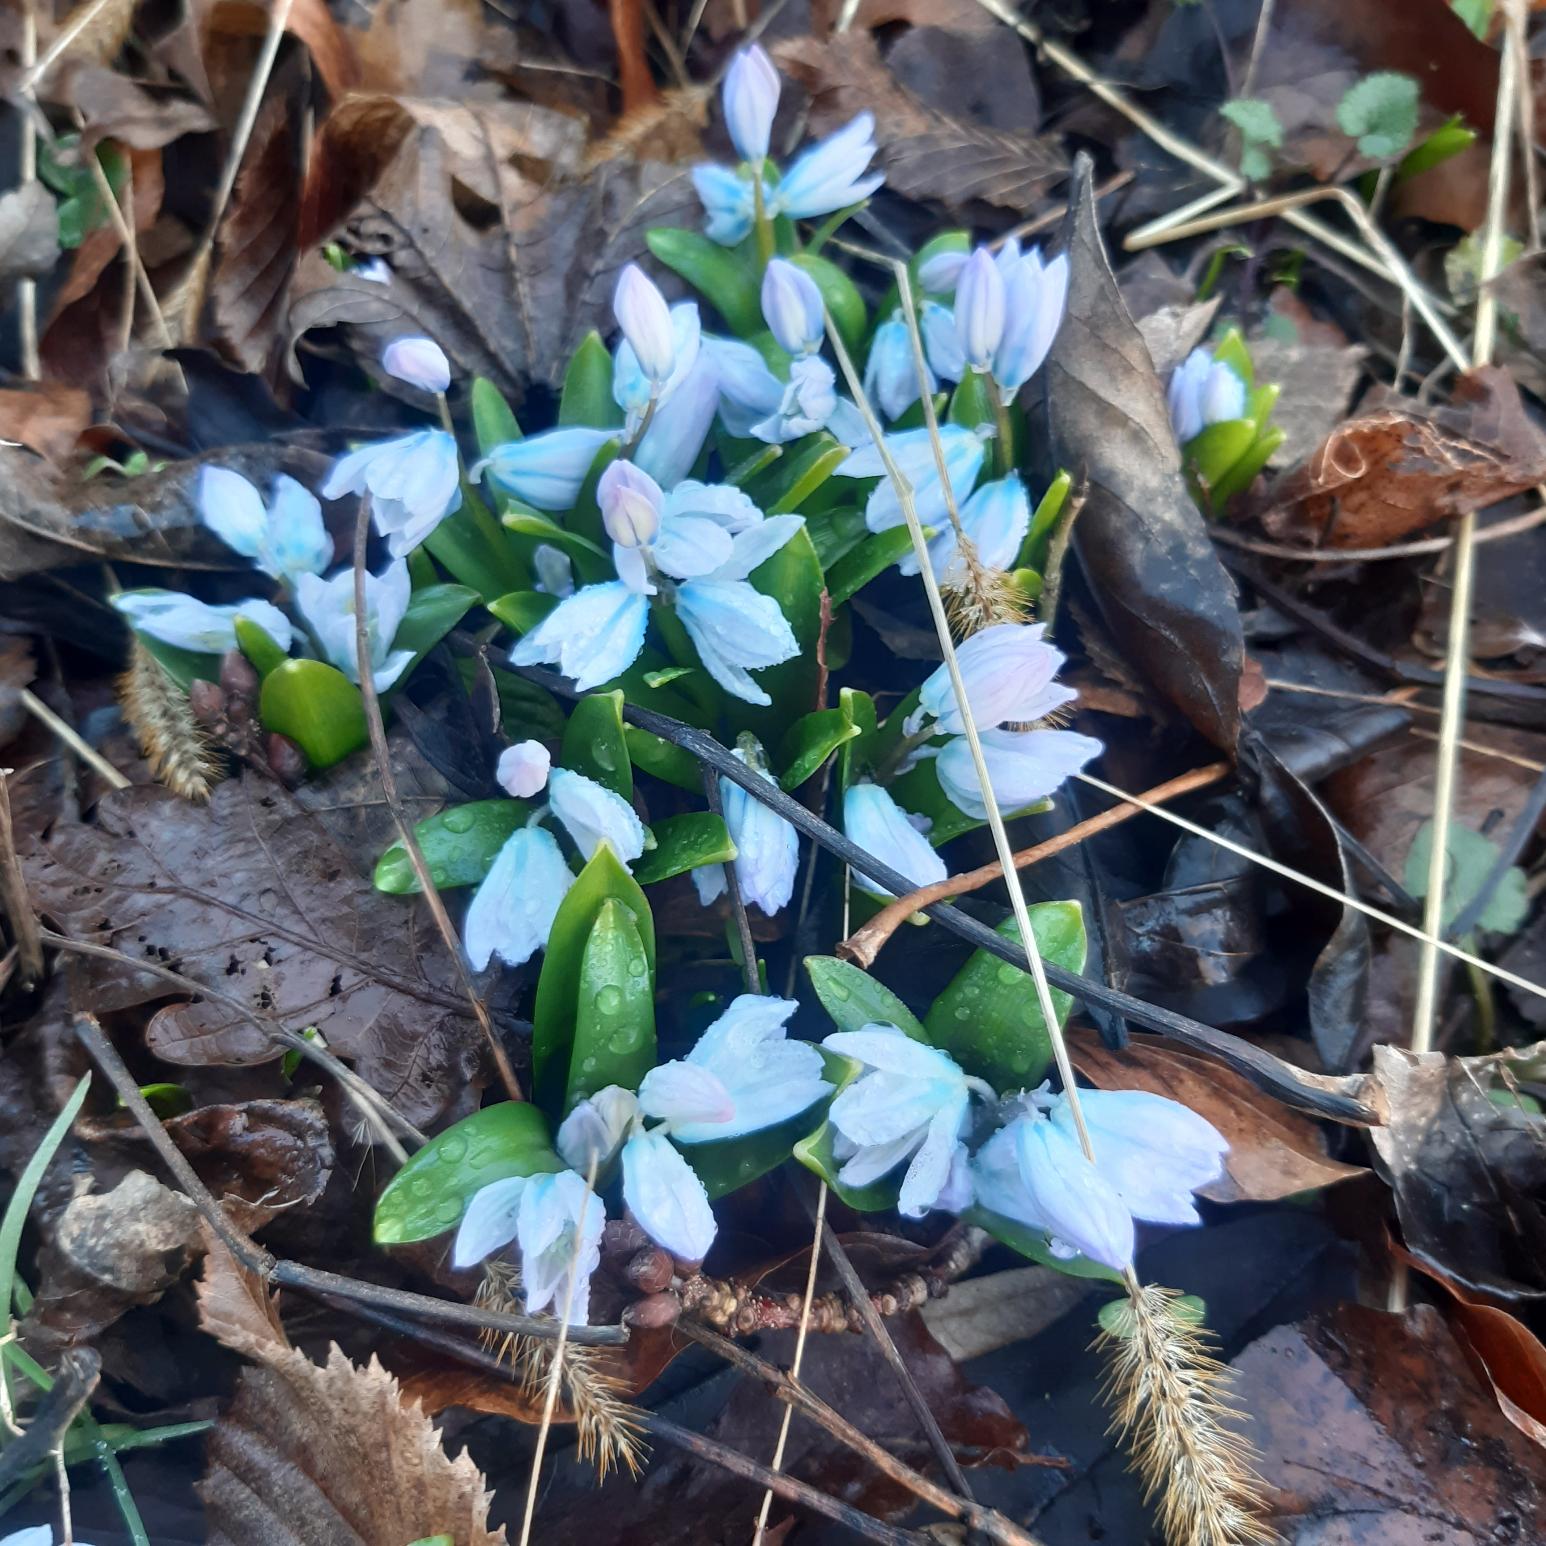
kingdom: Plantae
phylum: Tracheophyta
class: Liliopsida
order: Asparagales
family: Asparagaceae
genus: Scilla
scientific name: Scilla mischtschenkoana
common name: Persisk skilla
